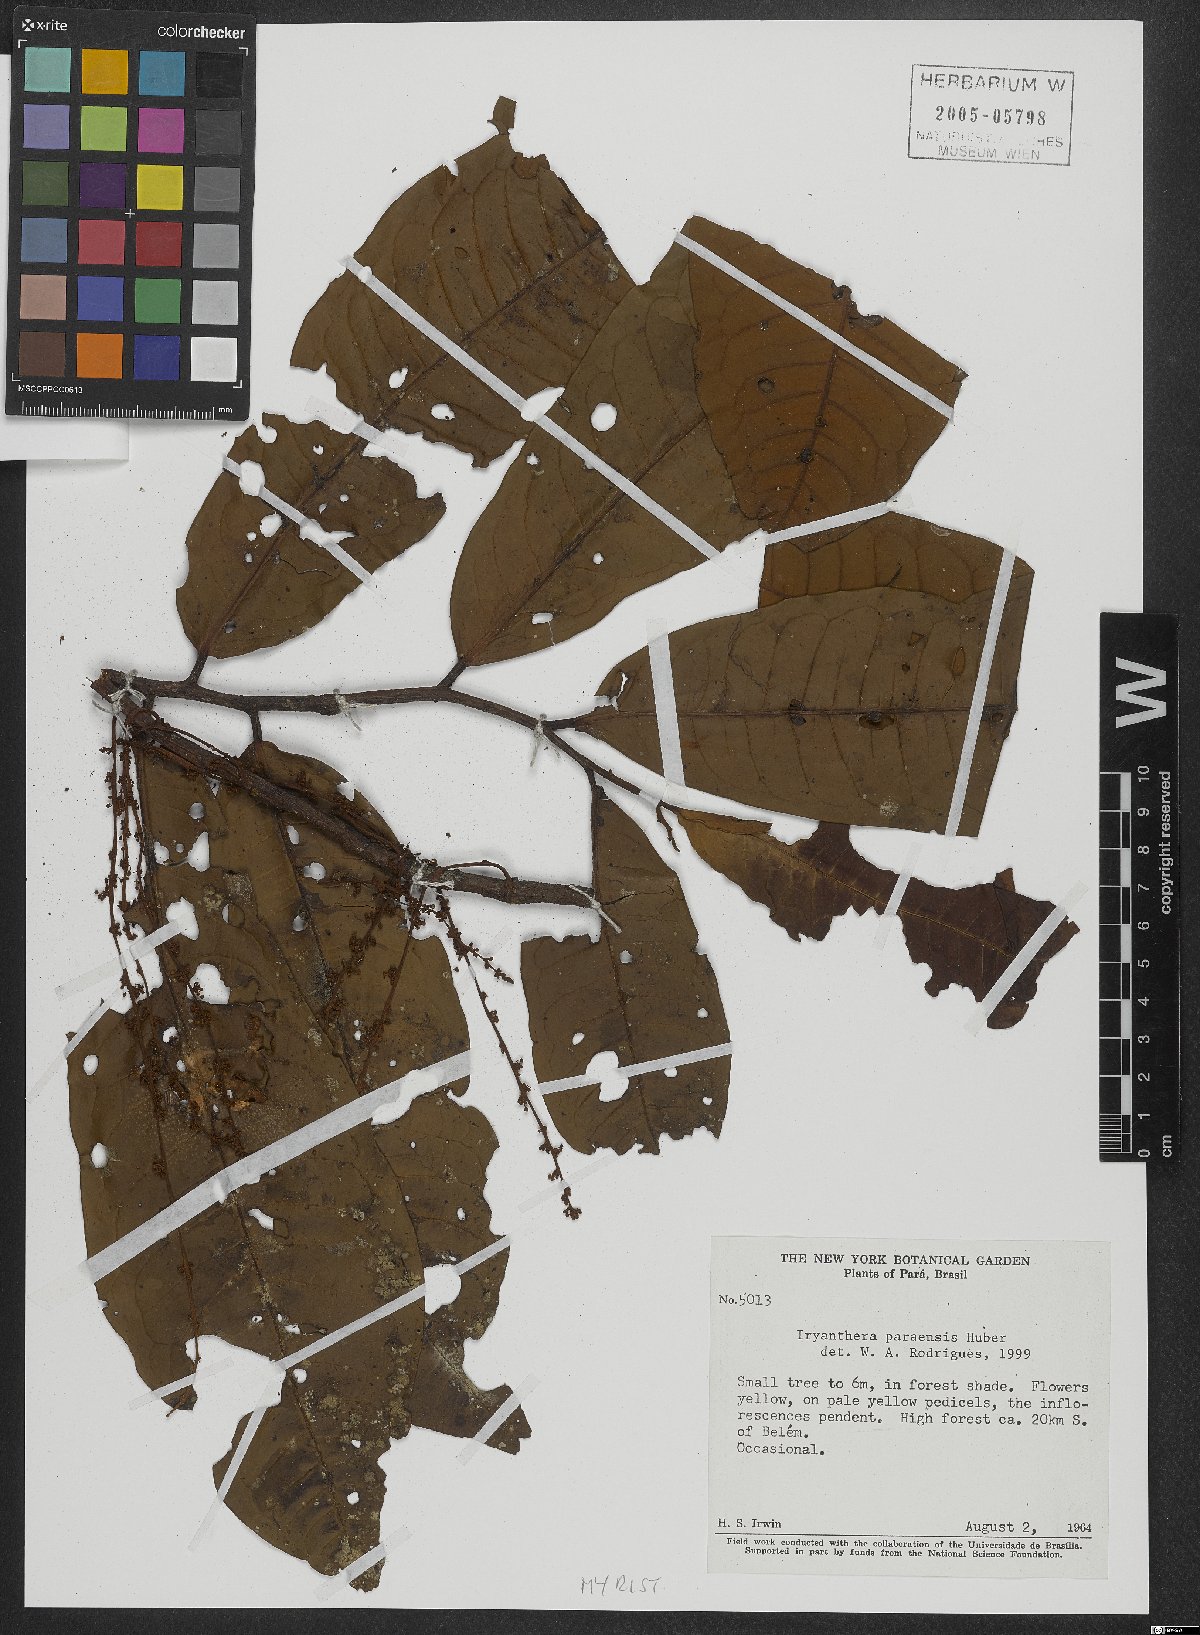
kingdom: Plantae
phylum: Tracheophyta
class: Magnoliopsida
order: Magnoliales
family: Myristicaceae
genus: Iryanthera
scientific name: Iryanthera paraensis
